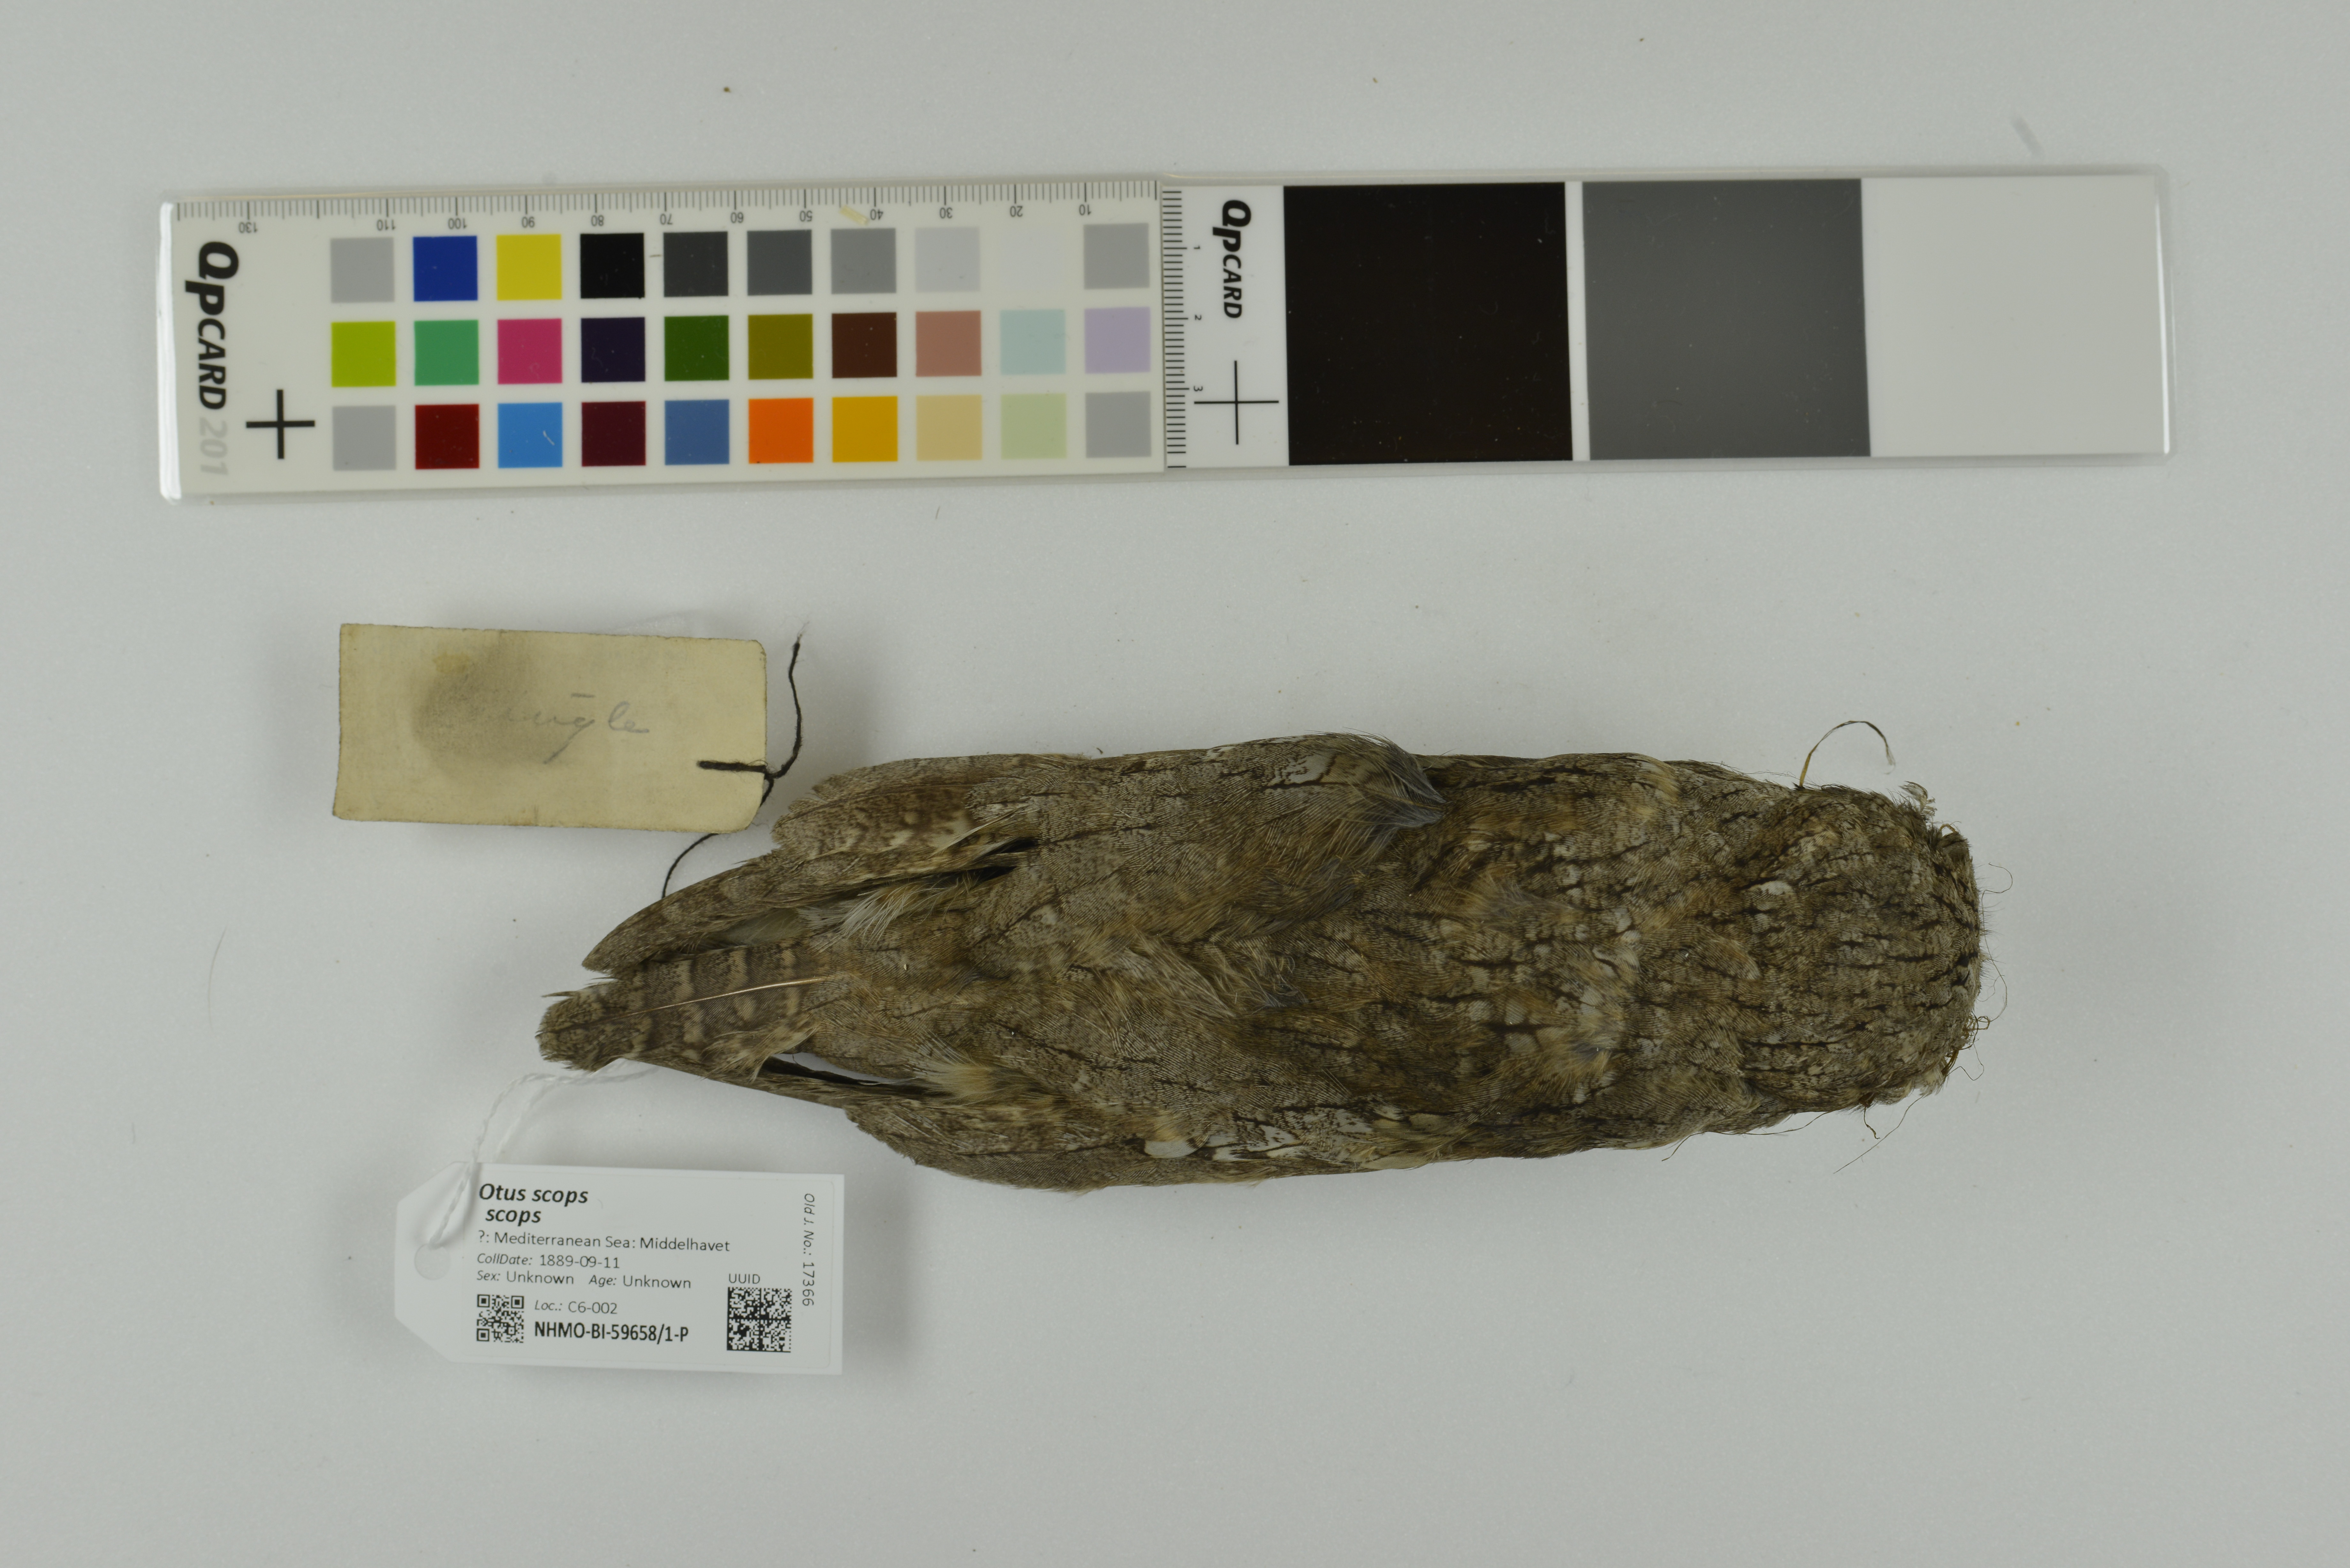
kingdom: Animalia
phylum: Chordata
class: Aves
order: Strigiformes
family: Strigidae
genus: Otus
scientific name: Otus scops
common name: Eurasian scops owl
